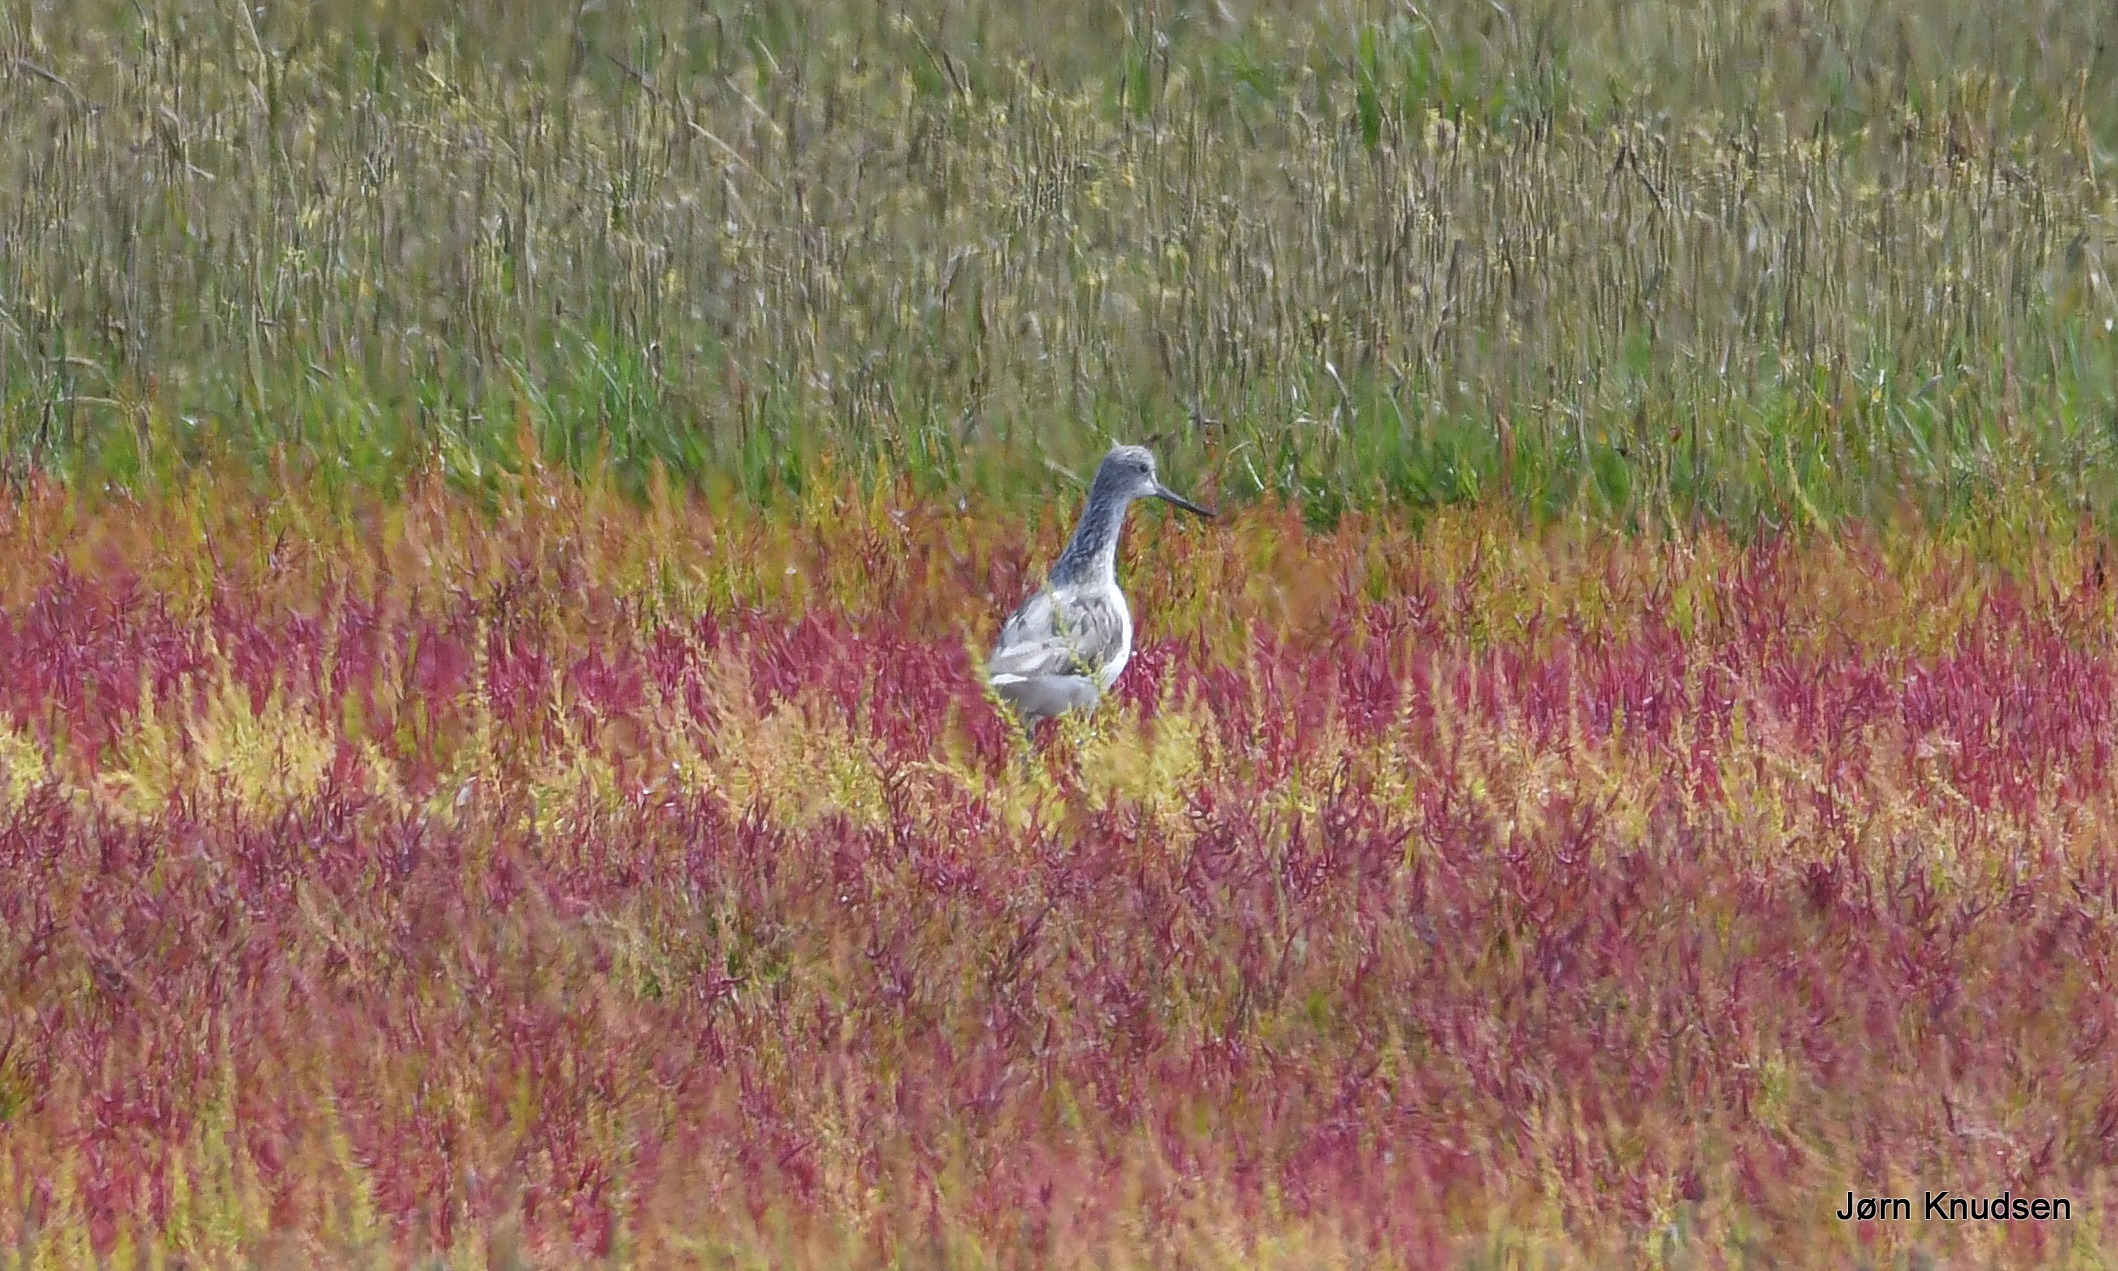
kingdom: Animalia
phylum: Chordata
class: Aves
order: Charadriiformes
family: Scolopacidae
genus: Tringa
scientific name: Tringa nebularia
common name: Hvidklire
